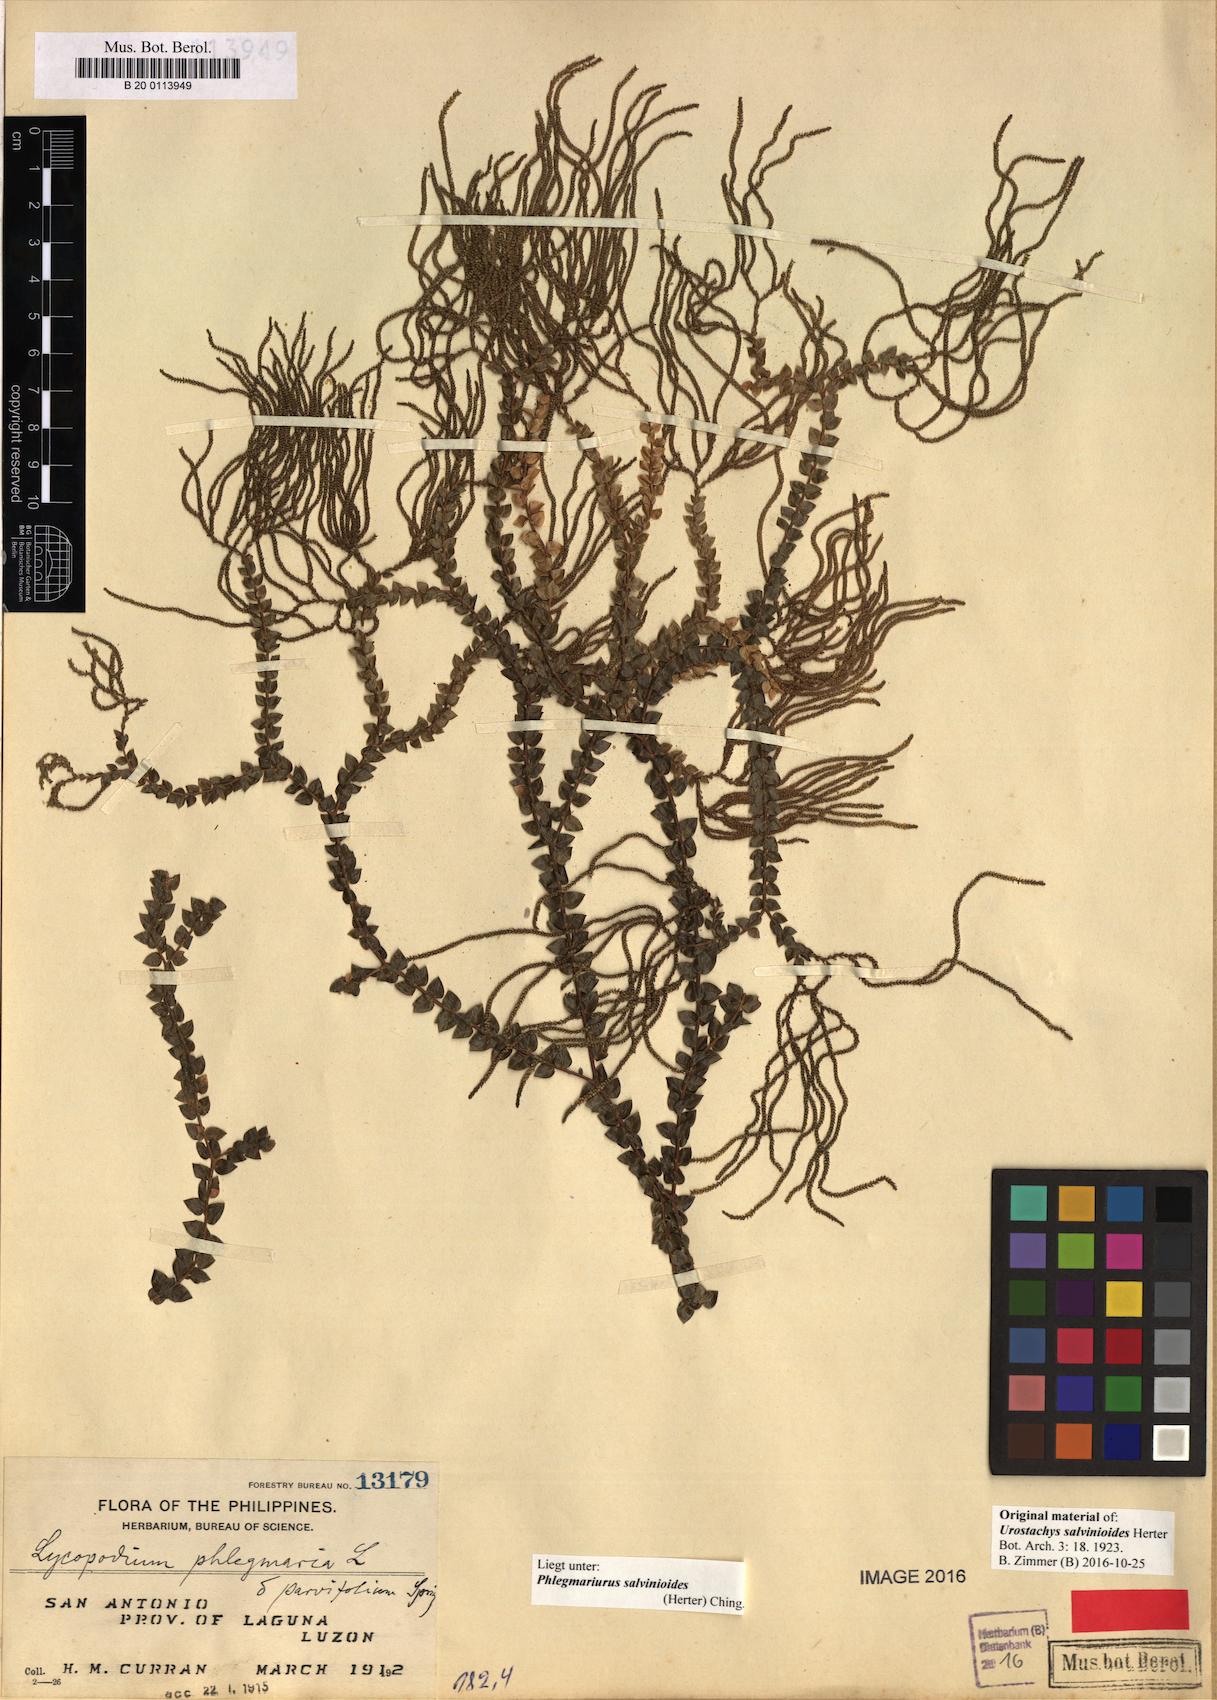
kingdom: Plantae
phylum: Tracheophyta
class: Lycopodiopsida
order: Lycopodiales
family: Lycopodiaceae
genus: Phlegmariurus
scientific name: Phlegmariurus salvinioides
